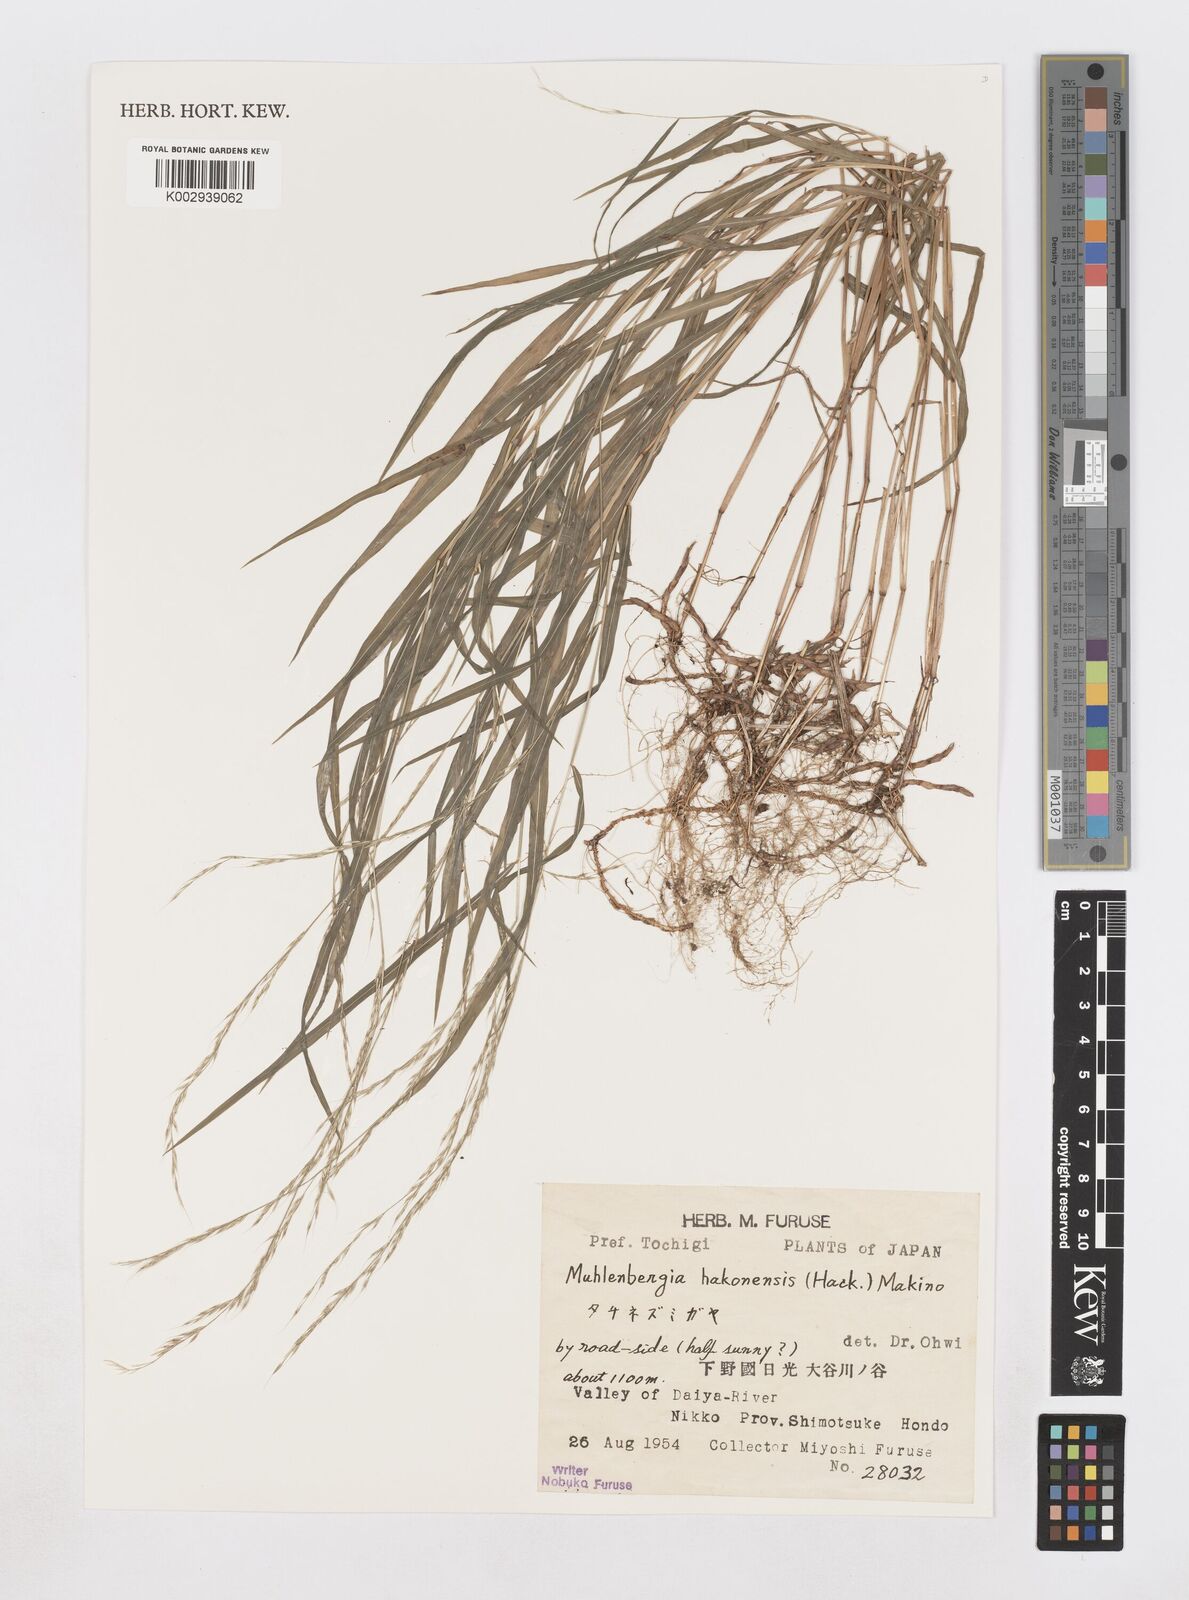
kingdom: Plantae
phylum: Tracheophyta
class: Liliopsida
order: Poales
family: Poaceae
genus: Muhlenbergia
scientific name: Muhlenbergia hakonensis
